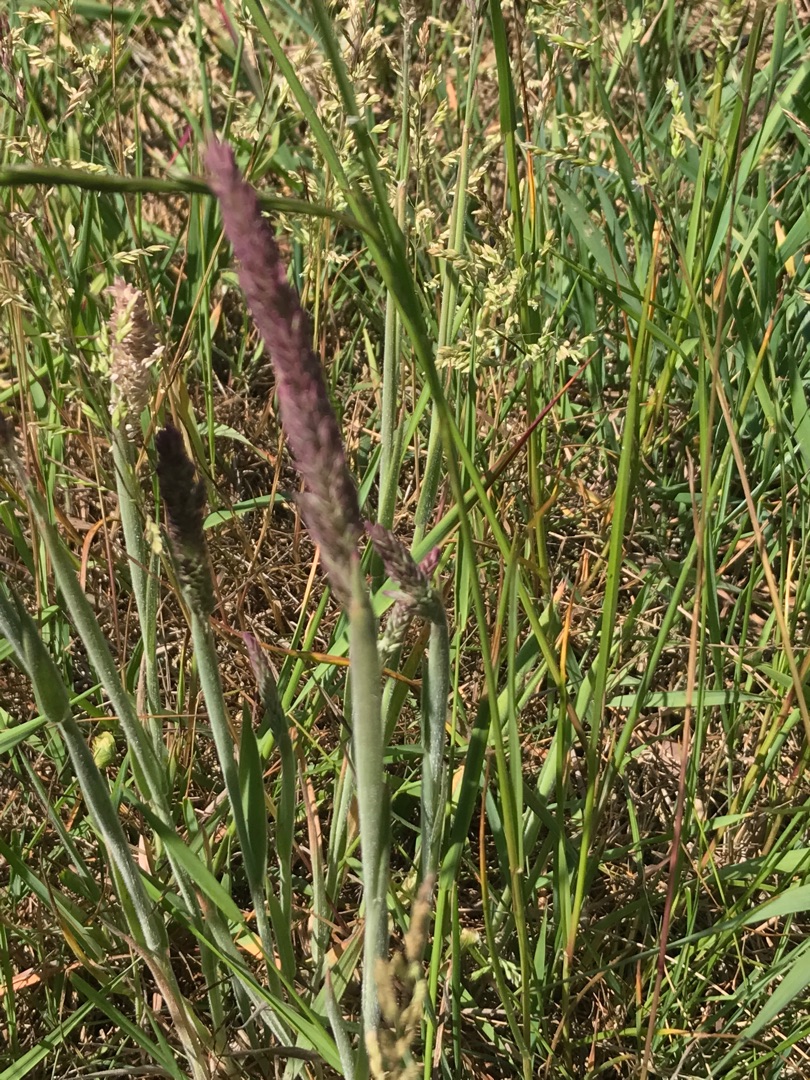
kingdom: Plantae
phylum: Tracheophyta
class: Liliopsida
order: Poales
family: Poaceae
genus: Holcus
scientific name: Holcus lanatus
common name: Fløjlsgræs
